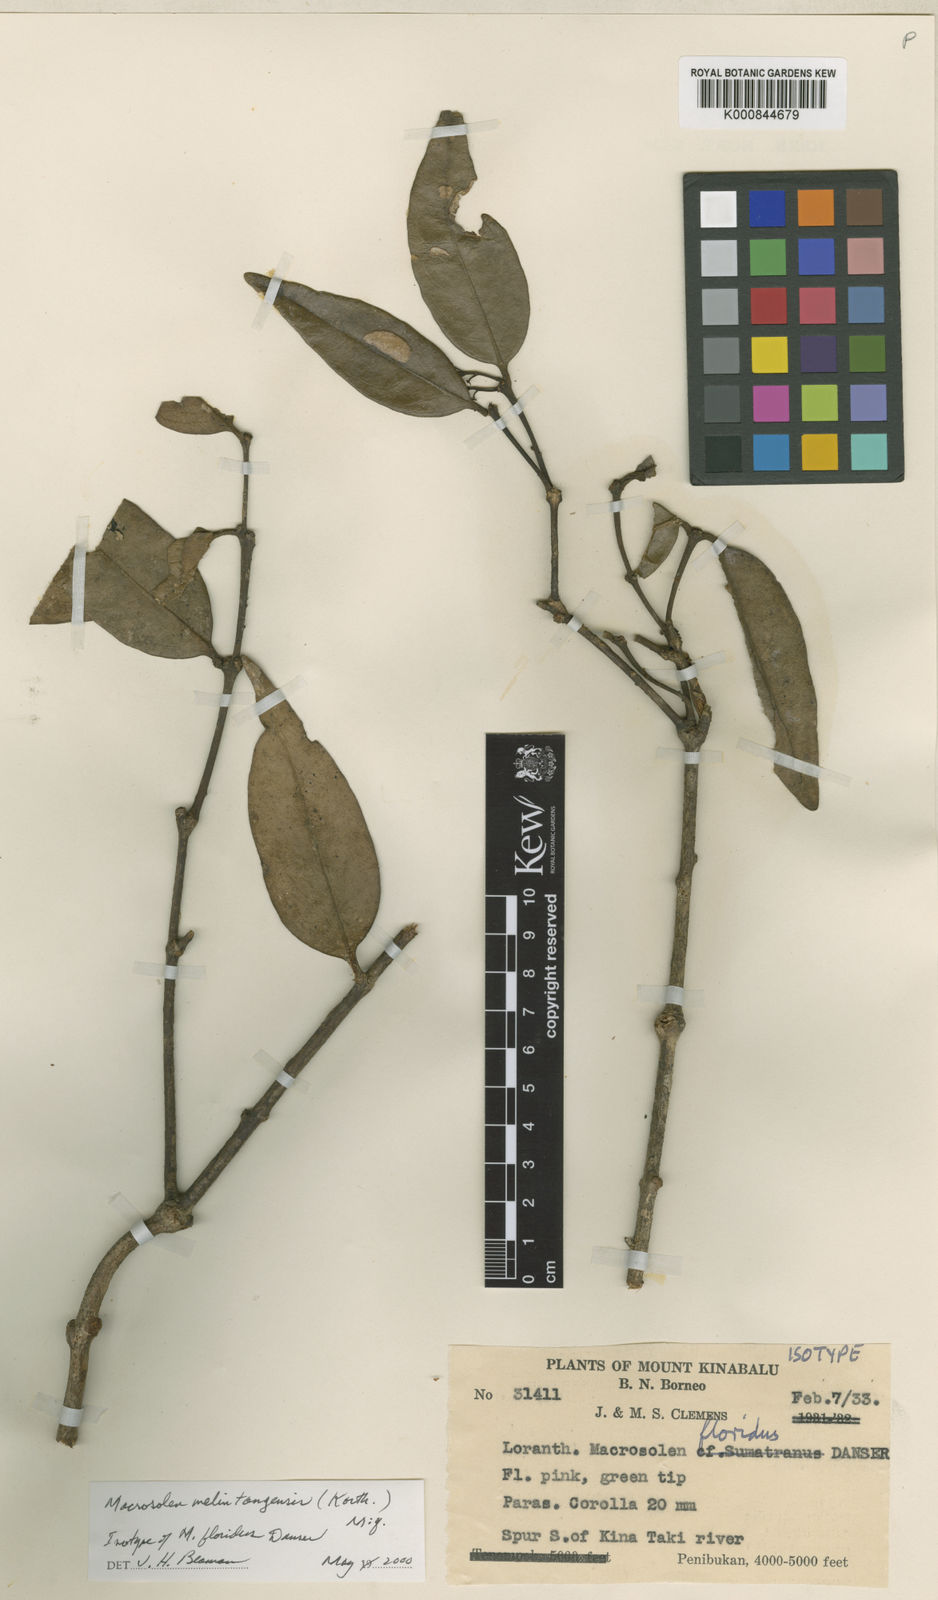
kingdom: Plantae
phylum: Tracheophyta
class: Magnoliopsida
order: Santalales
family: Loranthaceae
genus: Macrosolen
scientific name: Macrosolen melintangensis
